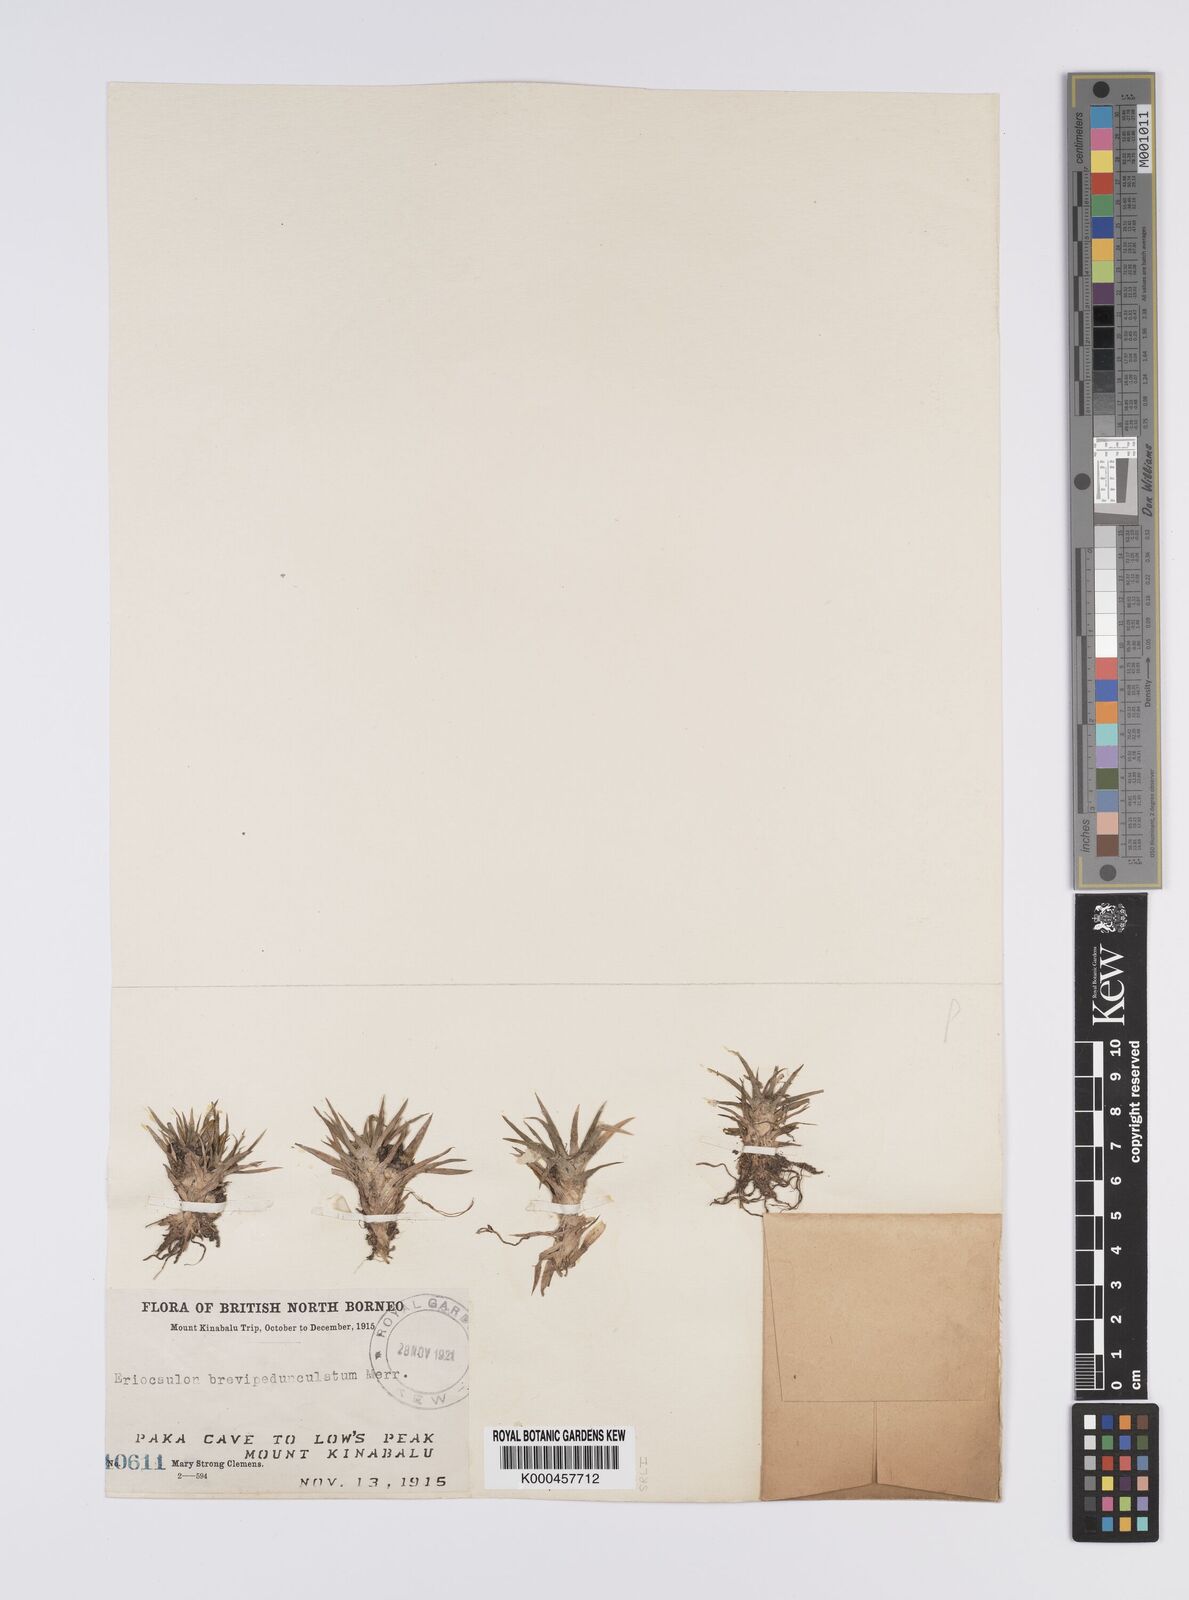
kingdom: Plantae
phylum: Tracheophyta
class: Liliopsida
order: Poales
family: Eriocaulaceae
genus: Eriocaulon
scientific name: Eriocaulon brevipedunculatum
